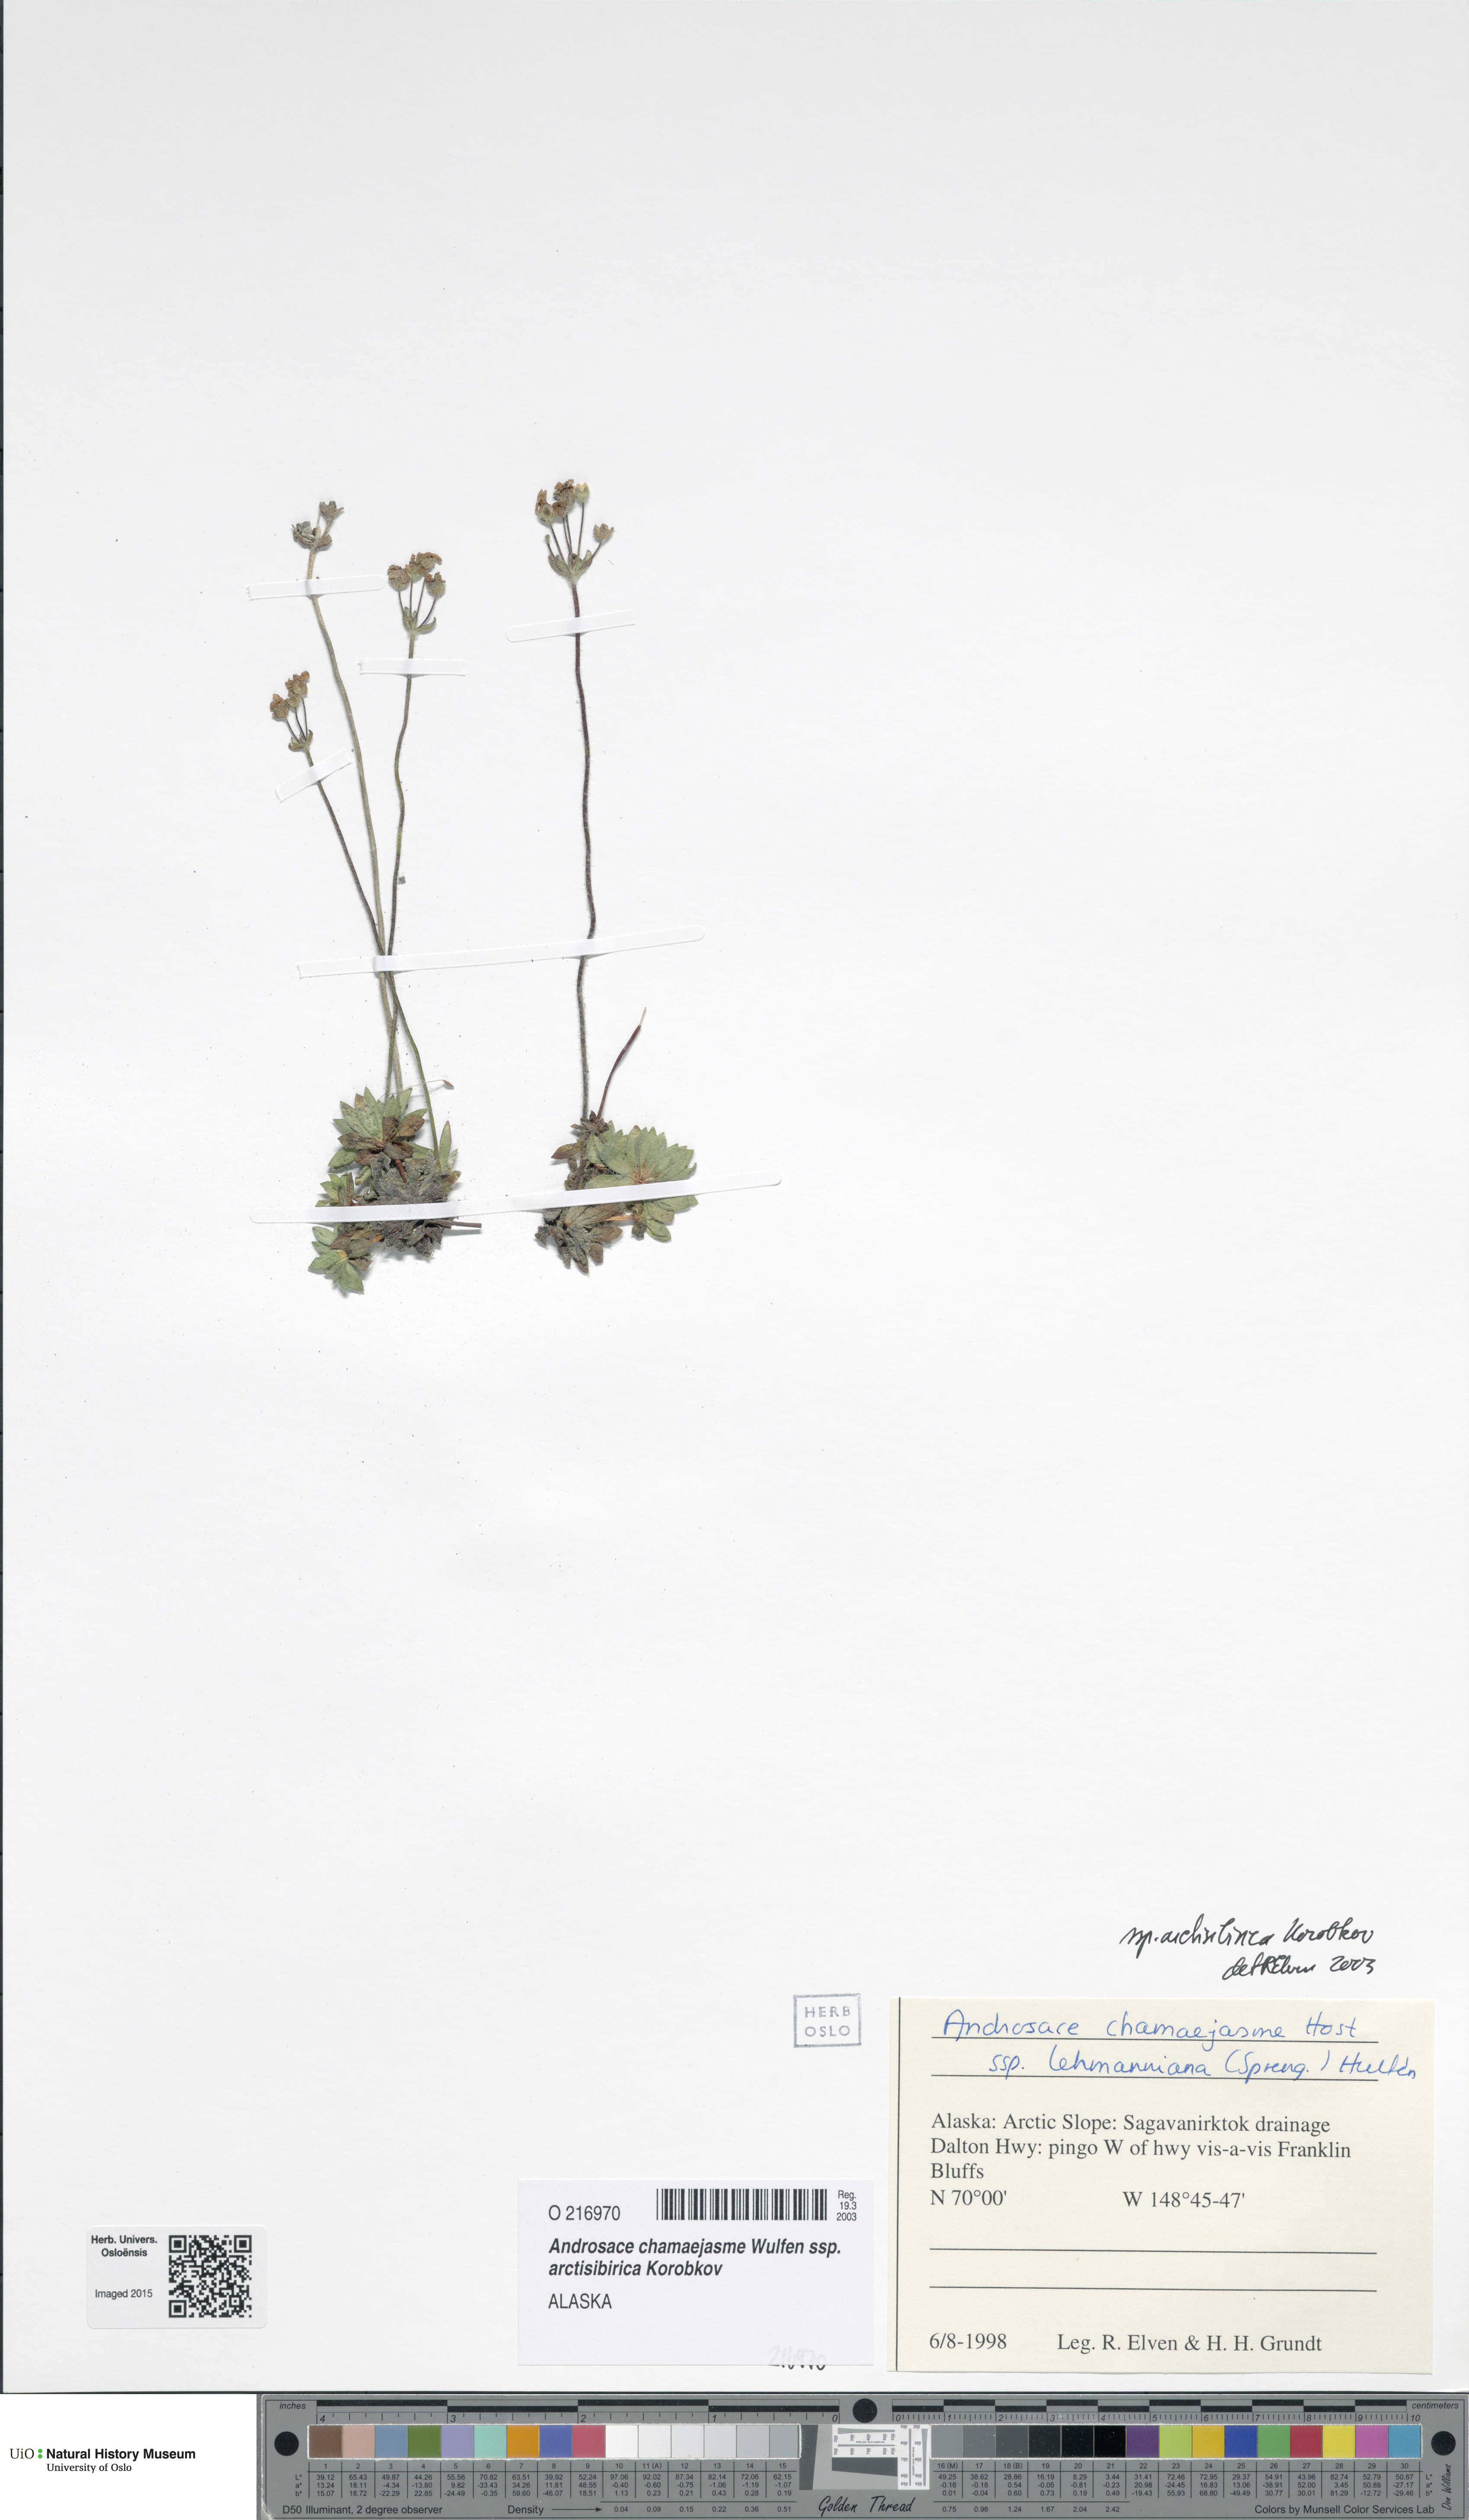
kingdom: Plantae
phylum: Tracheophyta
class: Magnoliopsida
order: Ericales
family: Primulaceae
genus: Androsace
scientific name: Androsace chamaejasme
